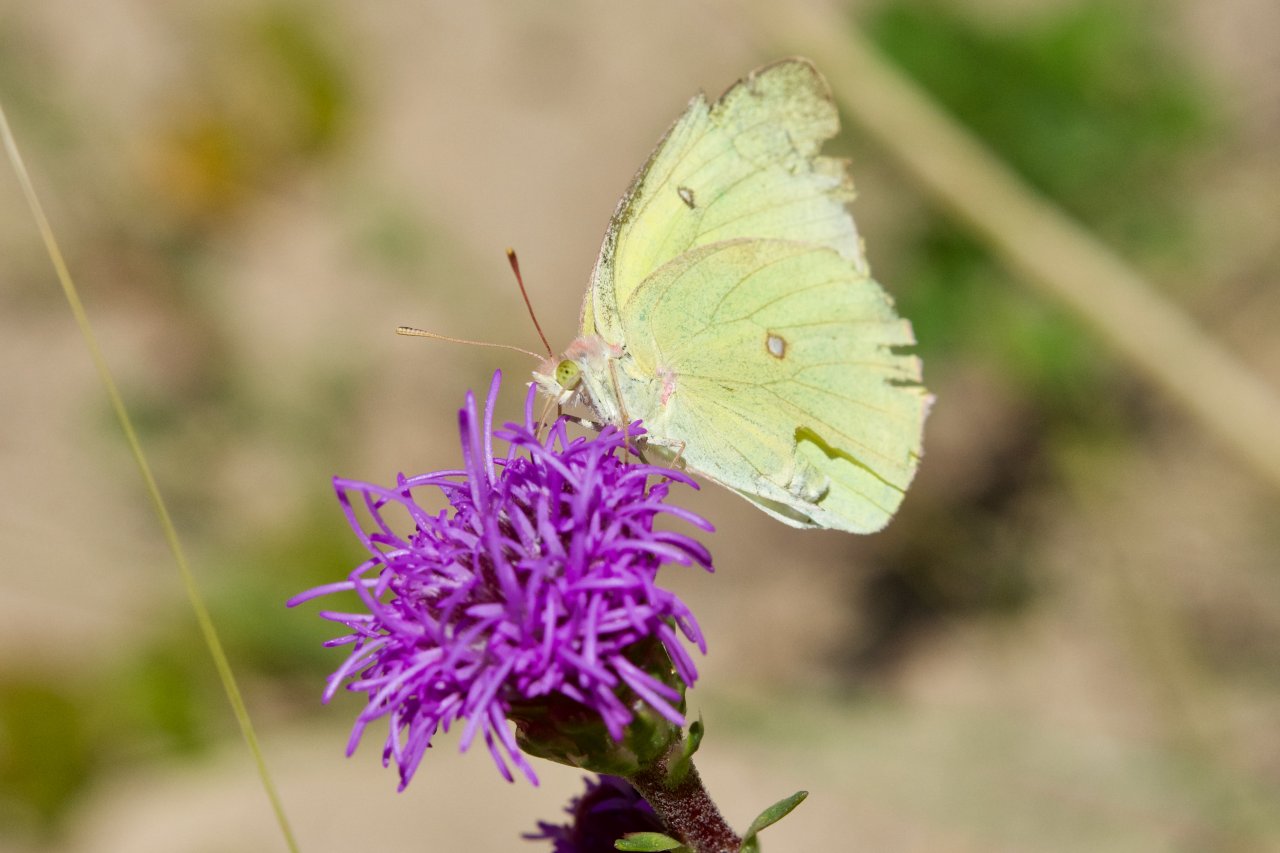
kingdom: Animalia
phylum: Arthropoda
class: Insecta
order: Lepidoptera
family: Pieridae
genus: Colias
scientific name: Colias interior
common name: Pink-edged Sulphur
